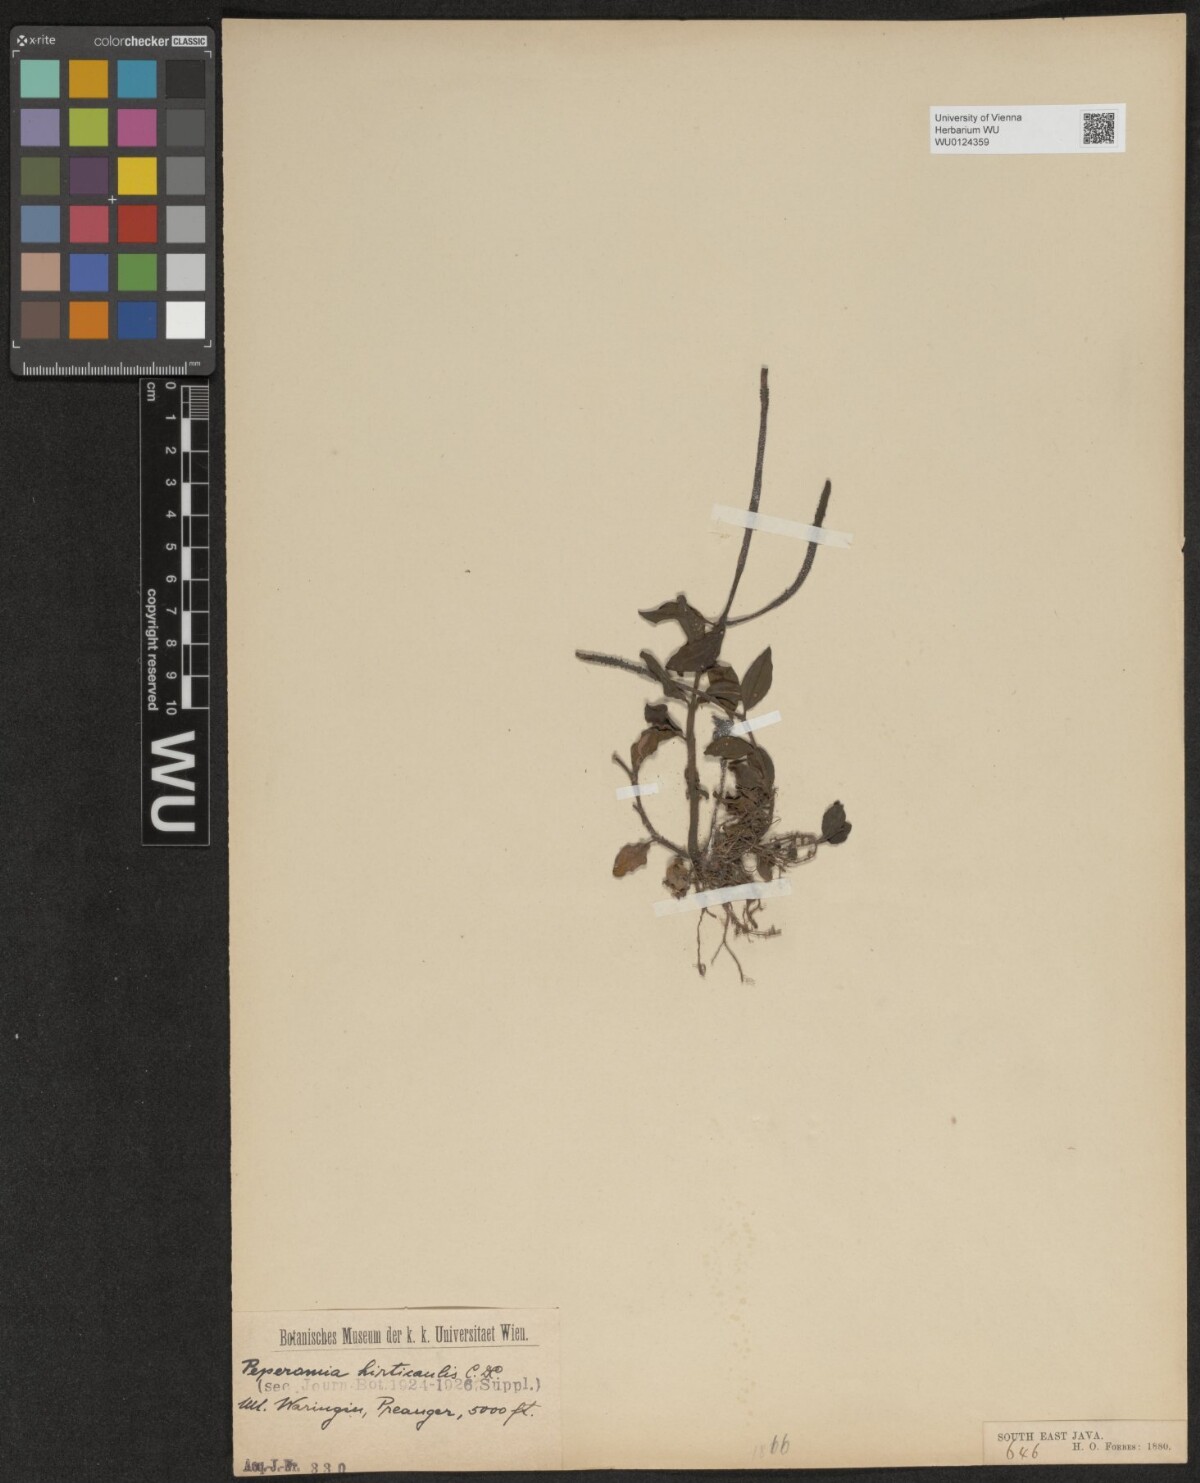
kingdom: Plantae
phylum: Tracheophyta
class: Magnoliopsida
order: Piperales
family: Piperaceae
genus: Peperomia
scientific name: Peperomia hirticaulis
